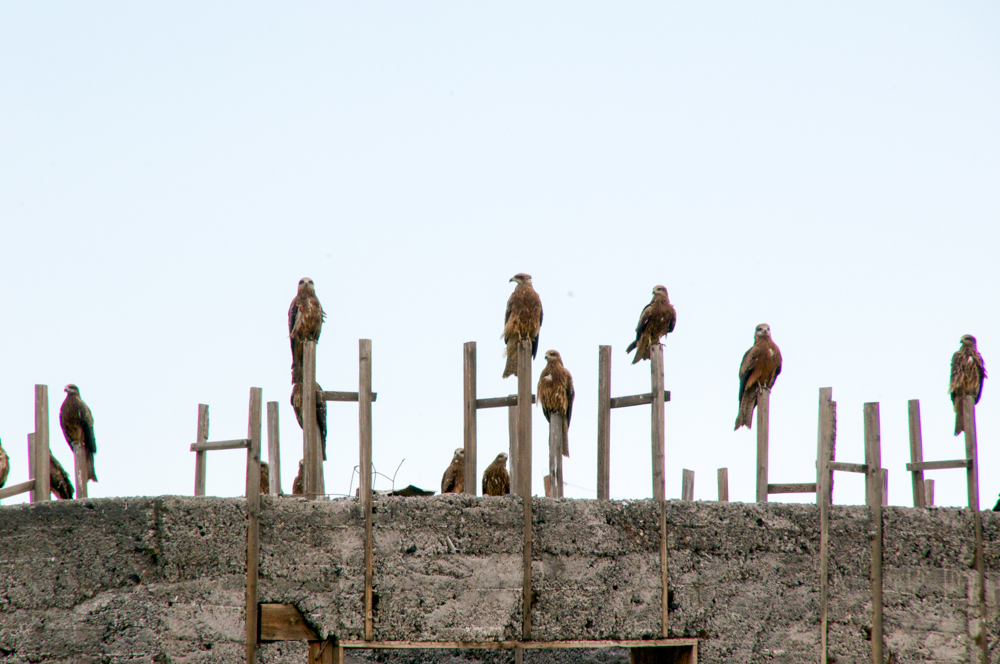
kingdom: Animalia
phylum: Chordata
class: Aves
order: Accipitriformes
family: Accipitridae
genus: Milvus
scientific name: Milvus migrans
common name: Black kite
